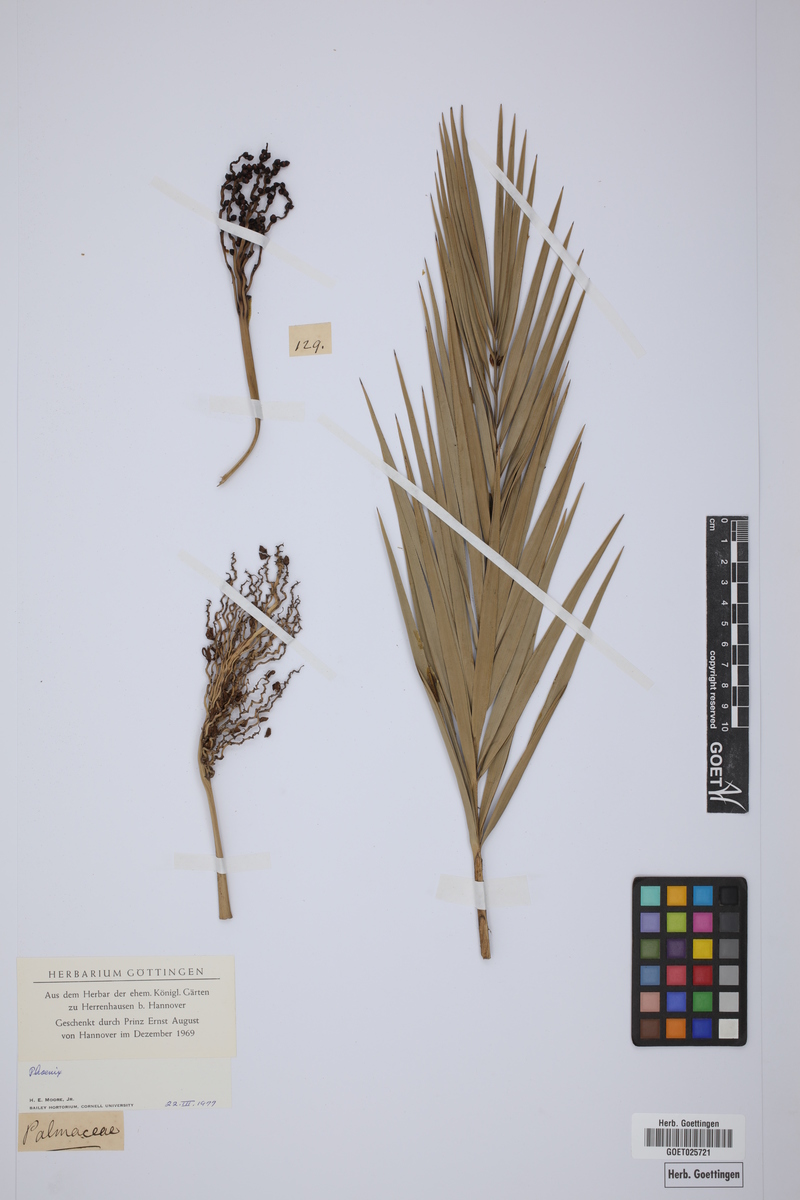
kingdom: Plantae
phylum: Tracheophyta
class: Liliopsida
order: Arecales
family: Arecaceae
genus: Phoenix
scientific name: Phoenix
